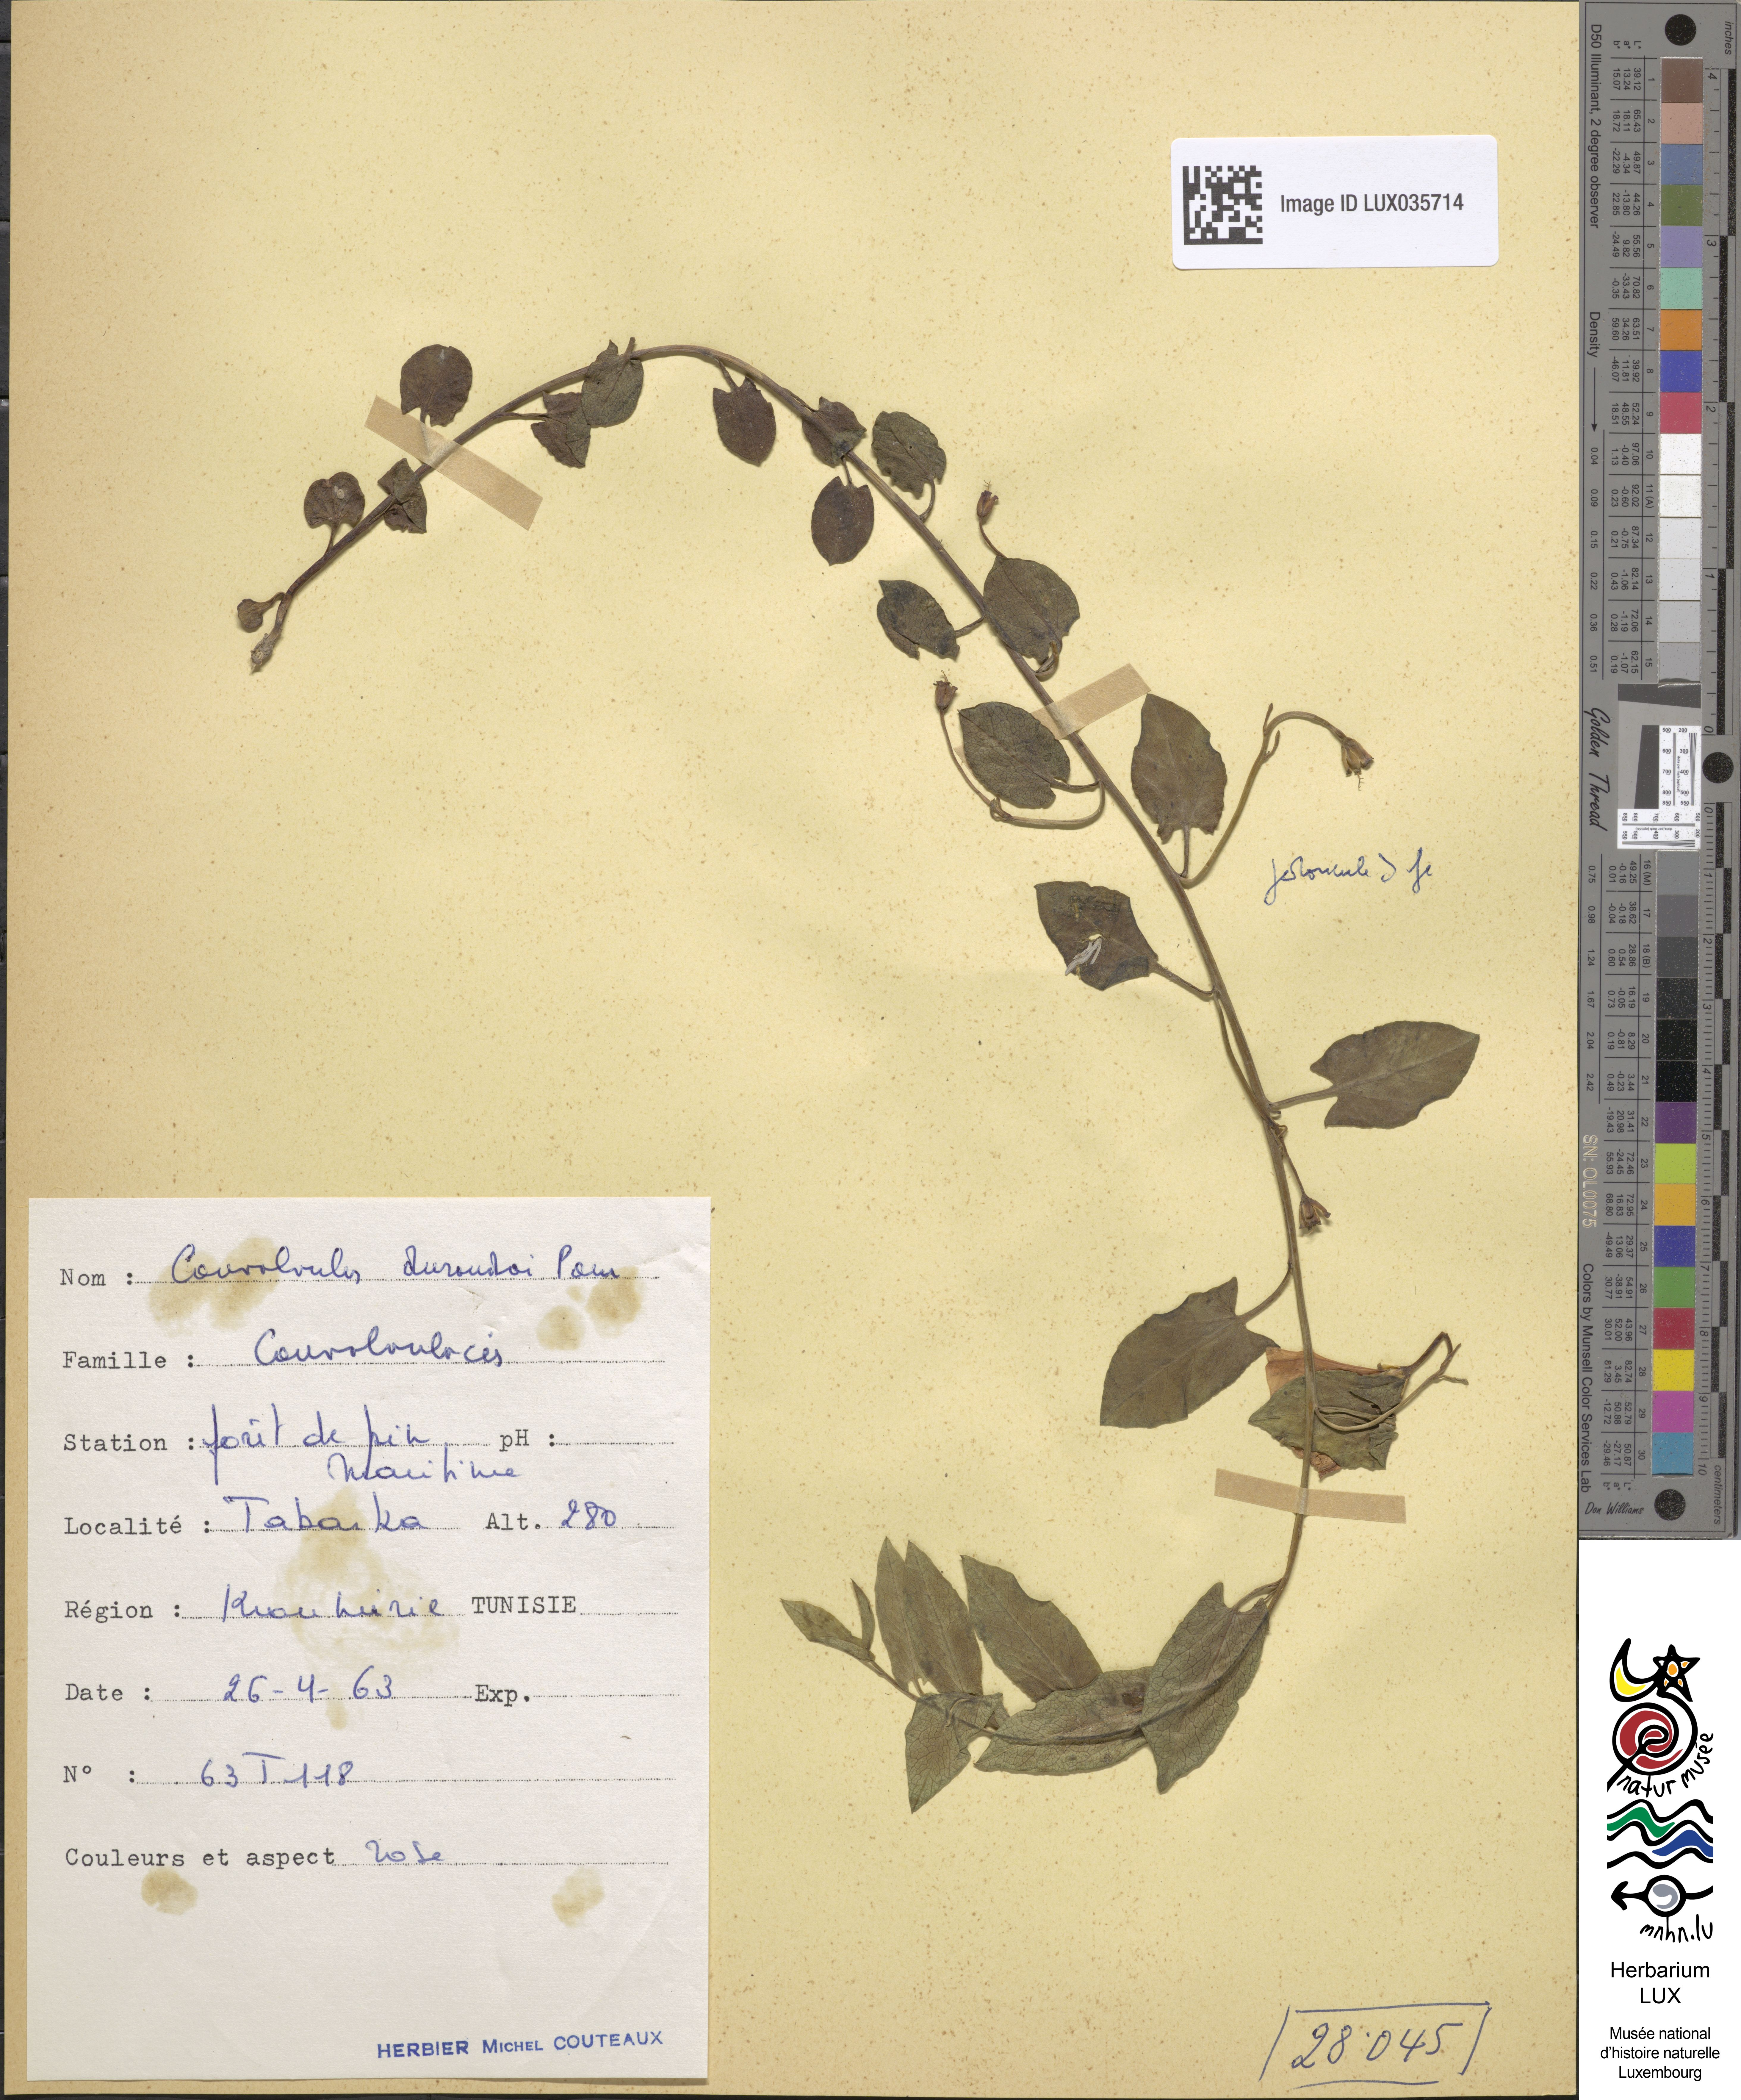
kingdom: Plantae
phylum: Tracheophyta
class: Magnoliopsida
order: Solanales
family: Convolvulaceae
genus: Convolvulus
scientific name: Convolvulus
